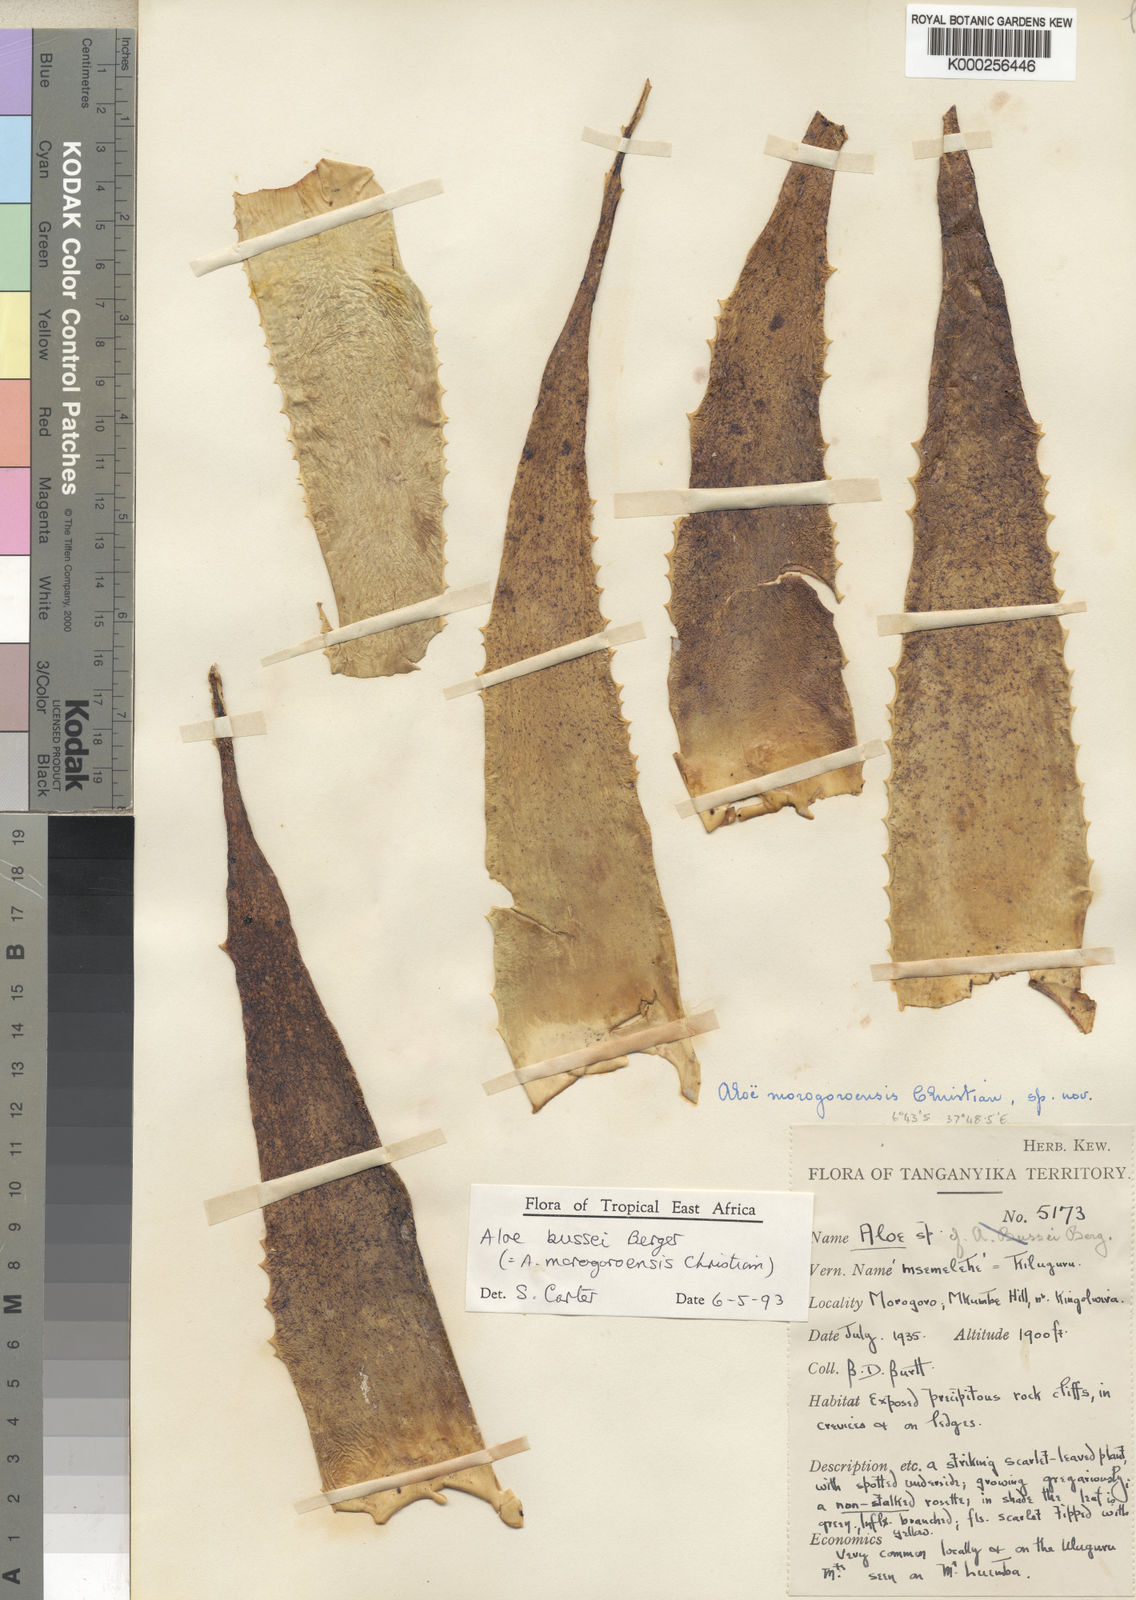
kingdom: Plantae
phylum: Tracheophyta
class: Liliopsida
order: Asparagales
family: Asphodelaceae
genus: Aloe
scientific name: Aloe bussei
